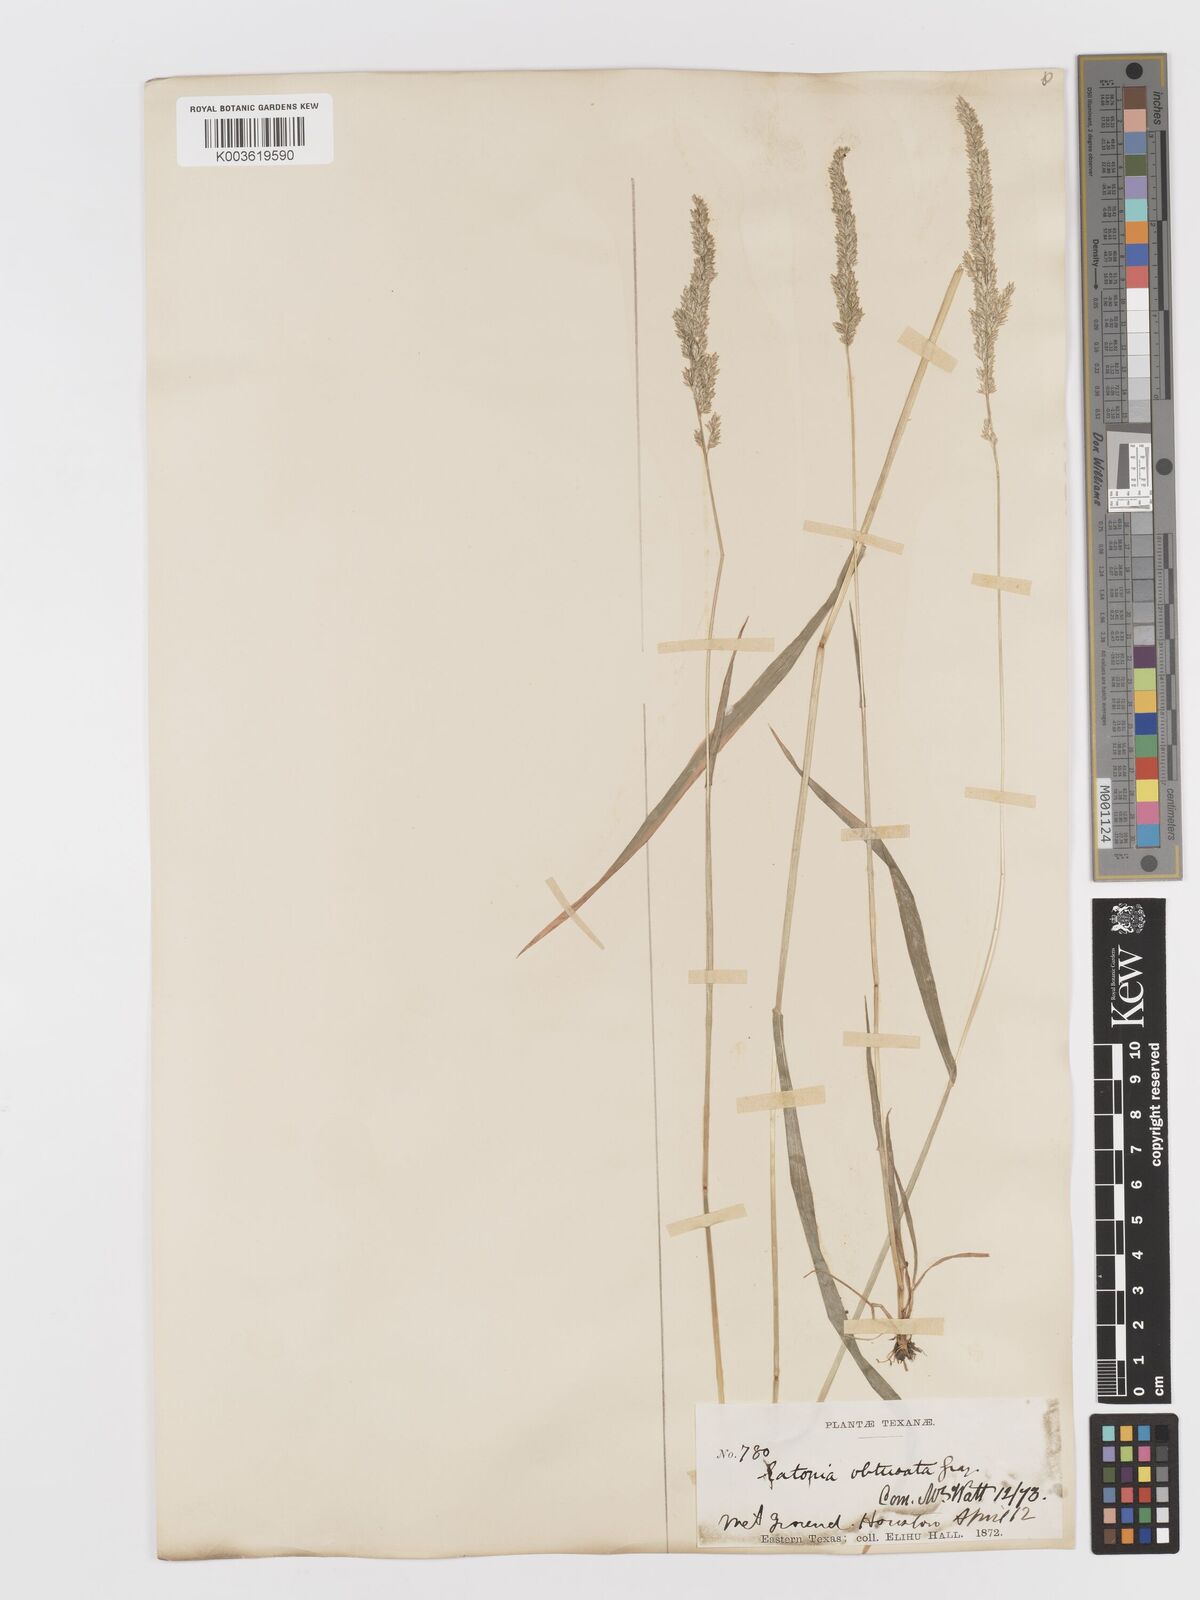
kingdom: Plantae
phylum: Tracheophyta
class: Liliopsida
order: Poales
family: Poaceae
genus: Sphenopholis
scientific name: Sphenopholis obtusata
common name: Prairie grass
